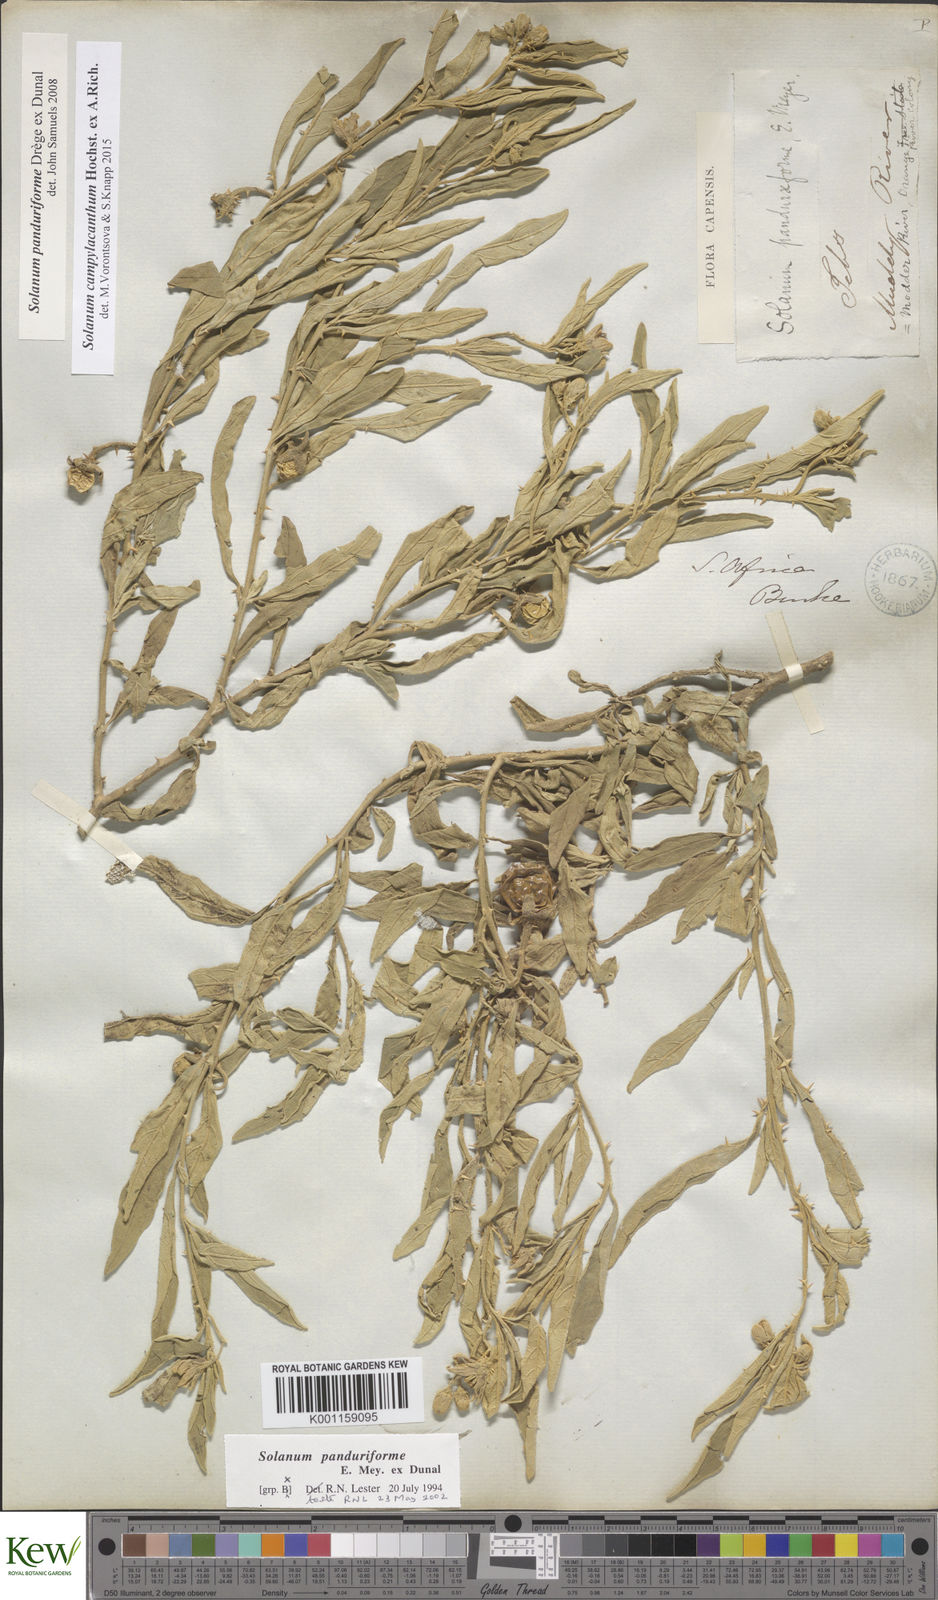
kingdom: Plantae
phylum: Tracheophyta
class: Magnoliopsida
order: Solanales
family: Solanaceae
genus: Solanum
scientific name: Solanum campylacanthum
